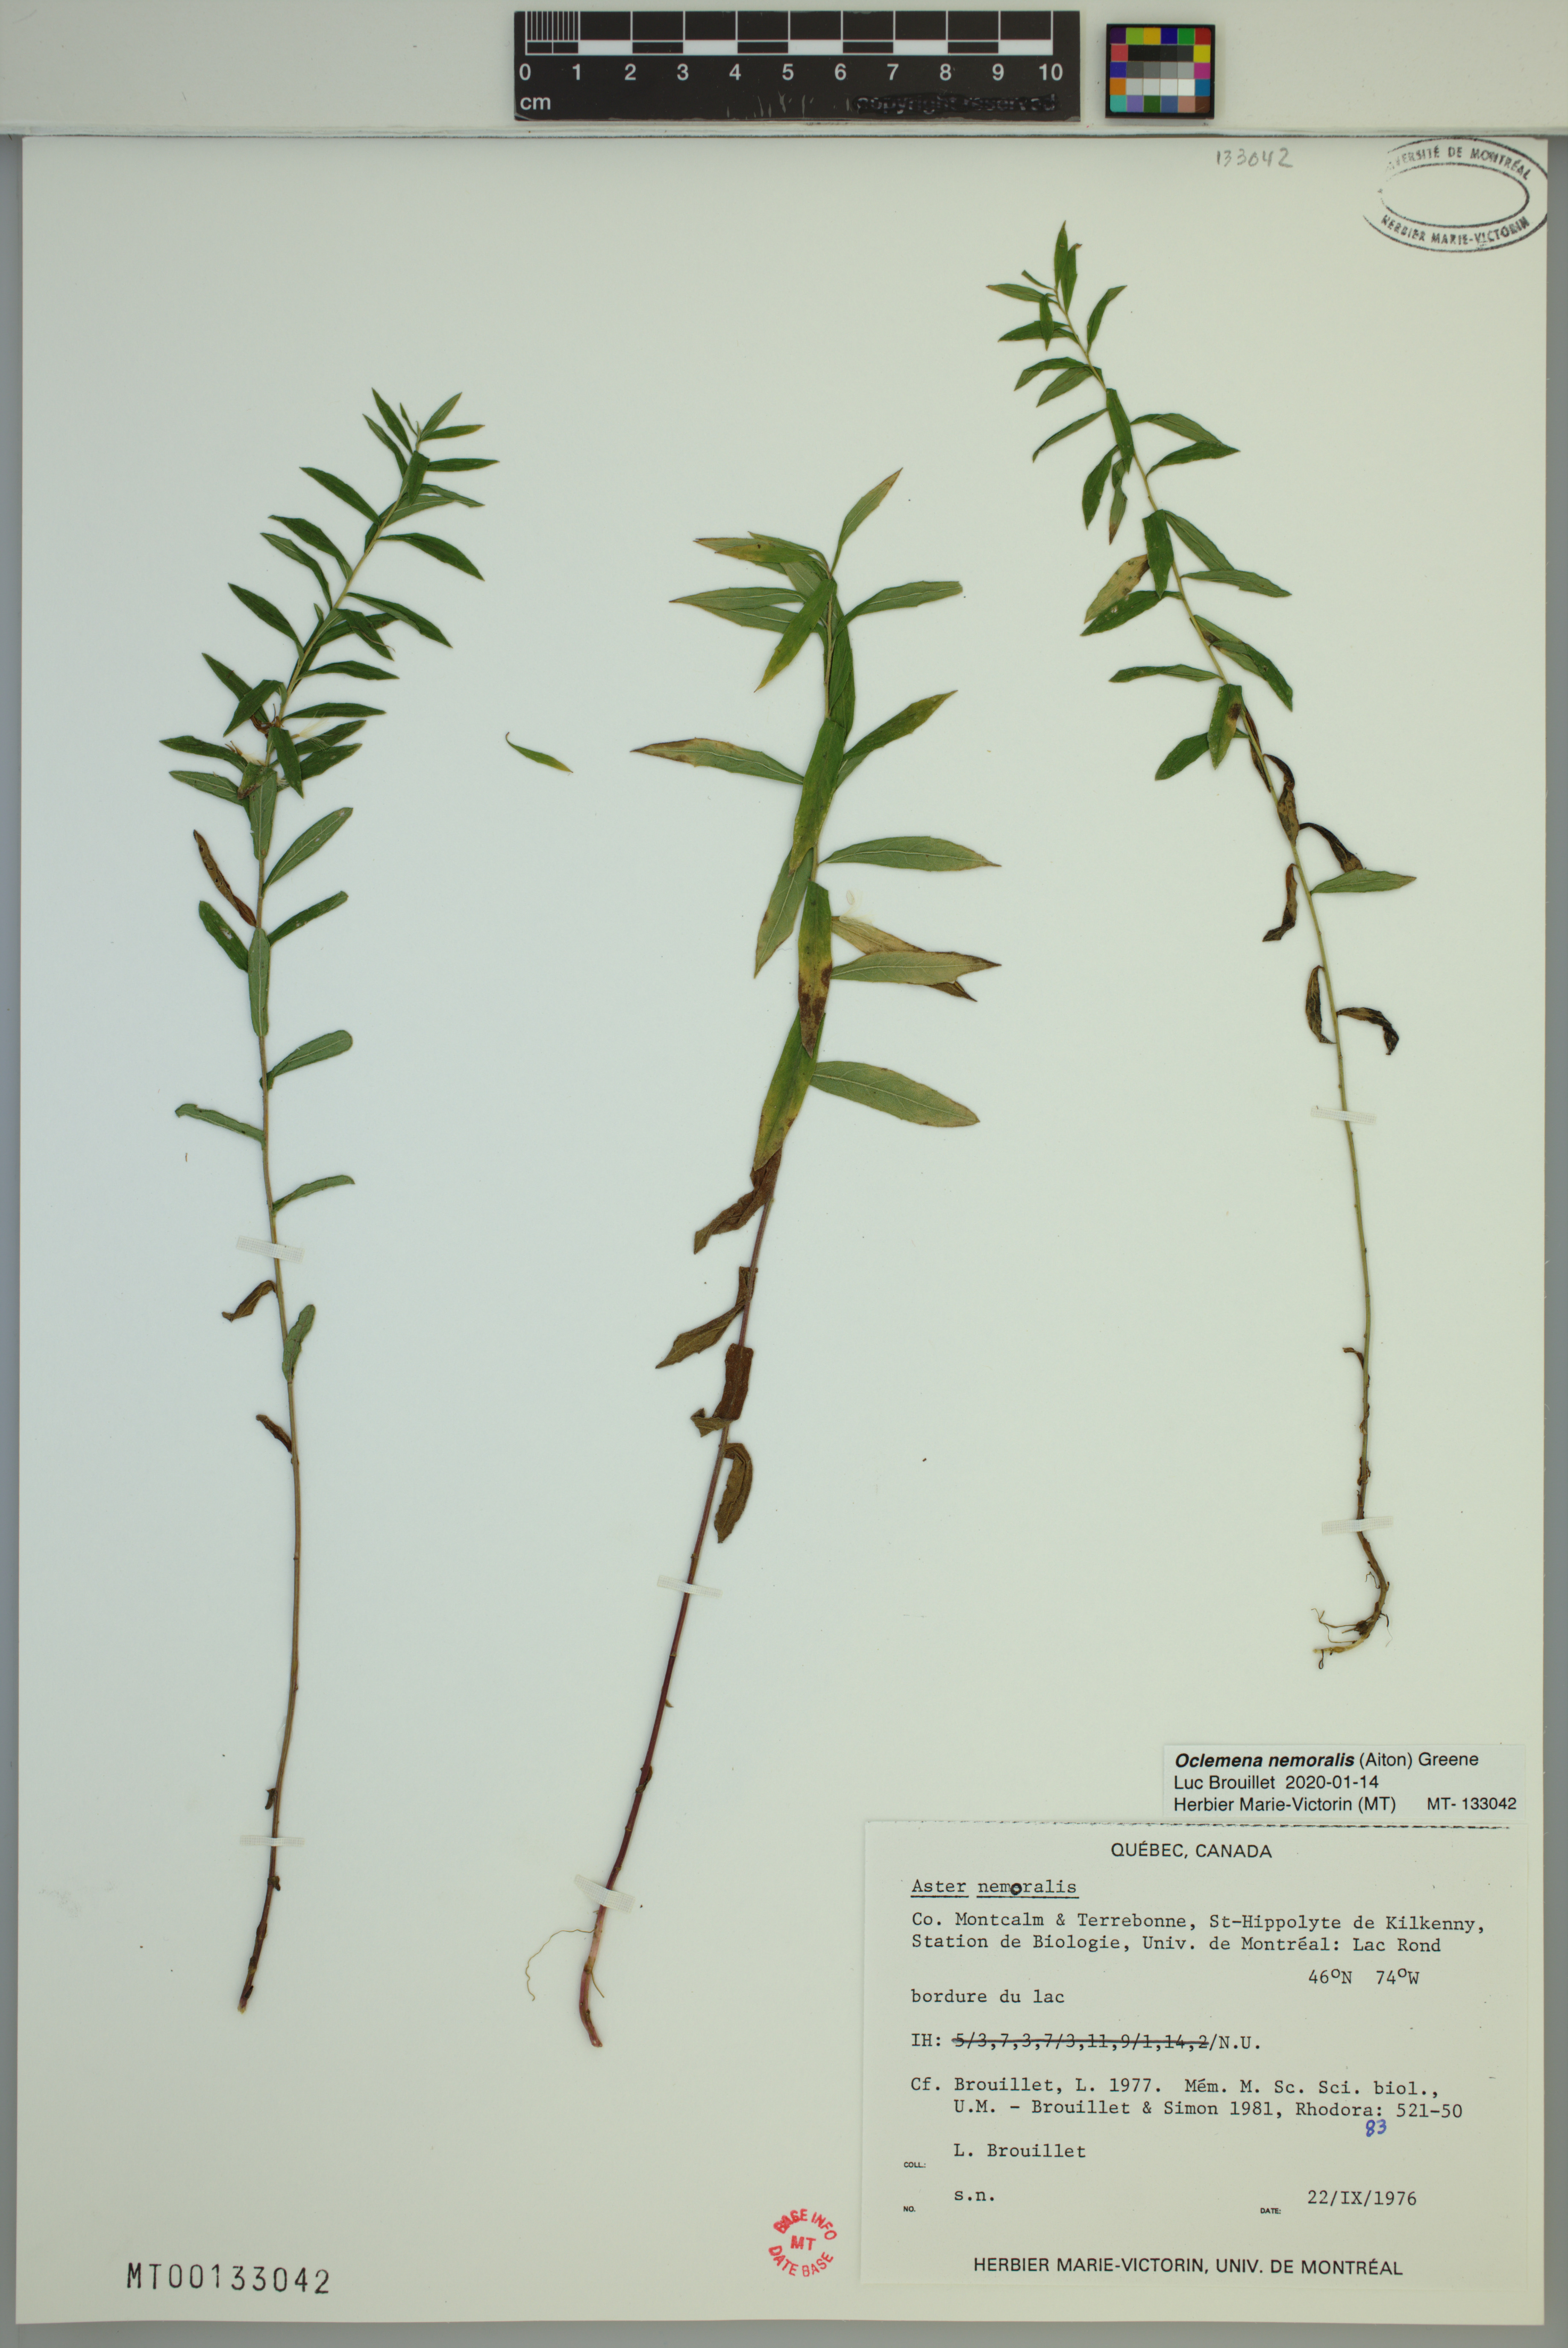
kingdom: Plantae
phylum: Tracheophyta
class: Magnoliopsida
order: Asterales
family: Asteraceae
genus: Oclemena
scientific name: Oclemena nemoralis
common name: Bog aster
